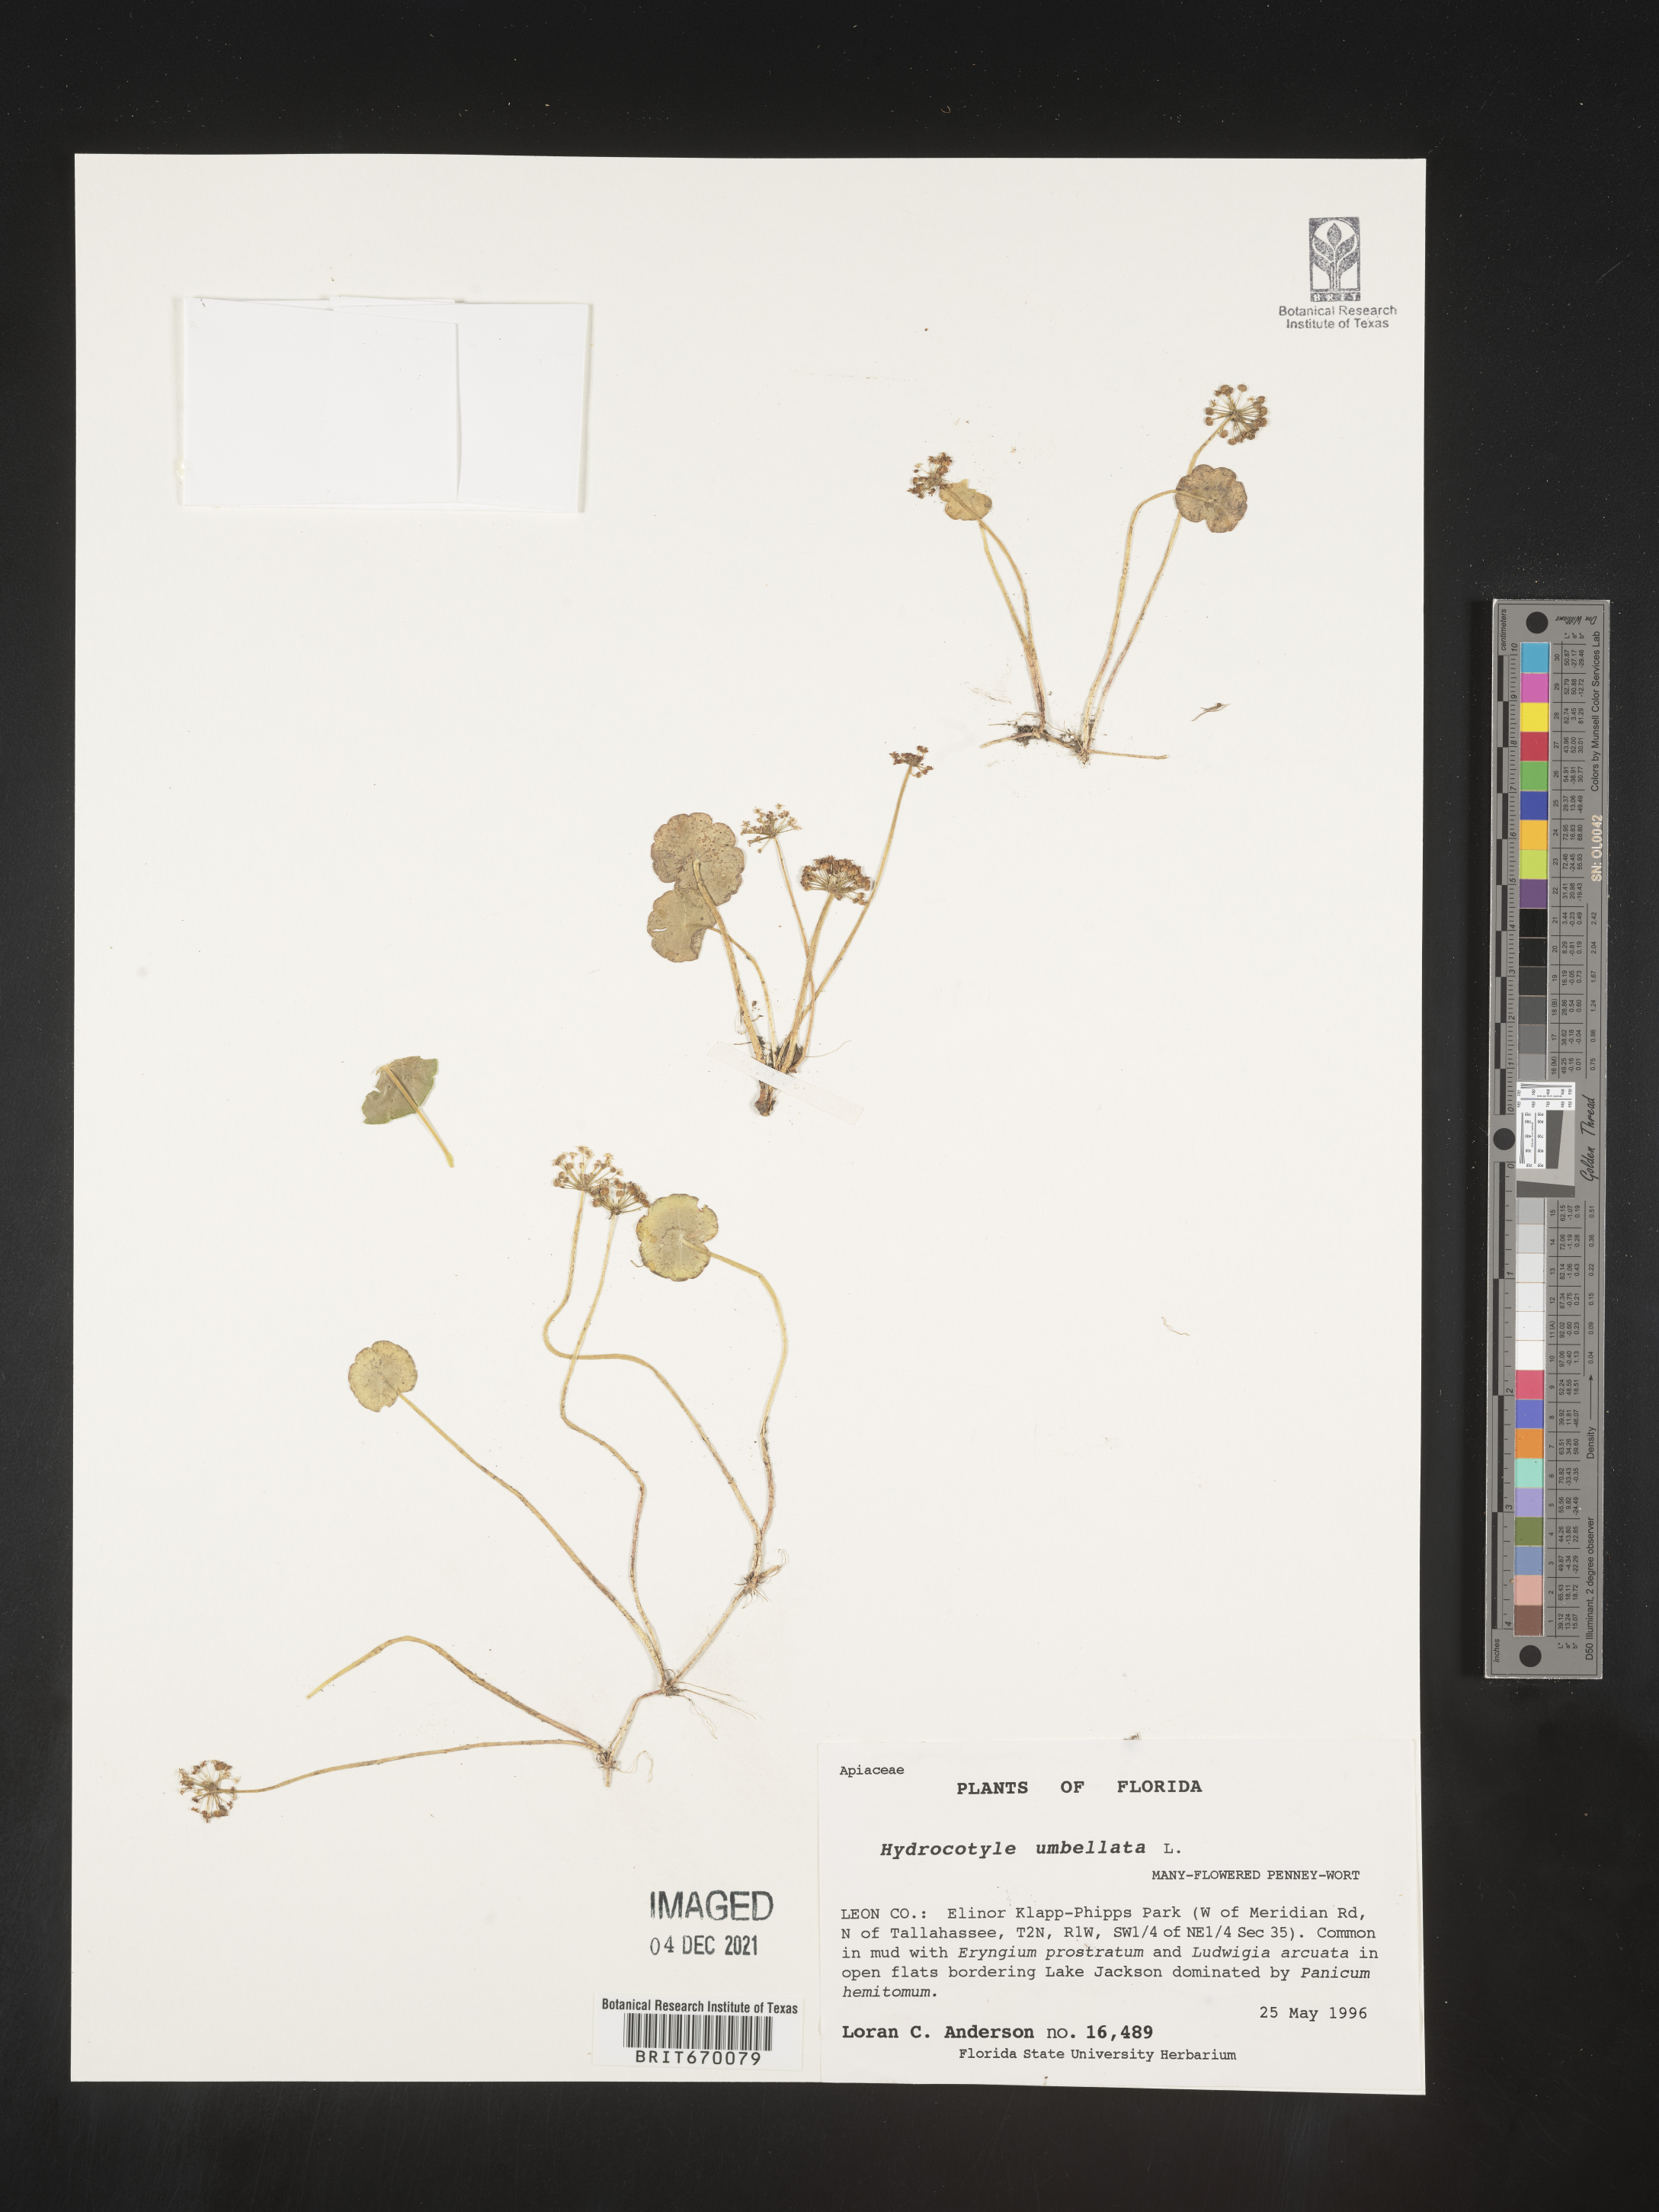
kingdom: Plantae
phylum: Tracheophyta
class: Magnoliopsida
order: Apiales
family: Araliaceae
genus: Hydrocotyle
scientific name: Hydrocotyle umbellata
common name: Water pennywort
